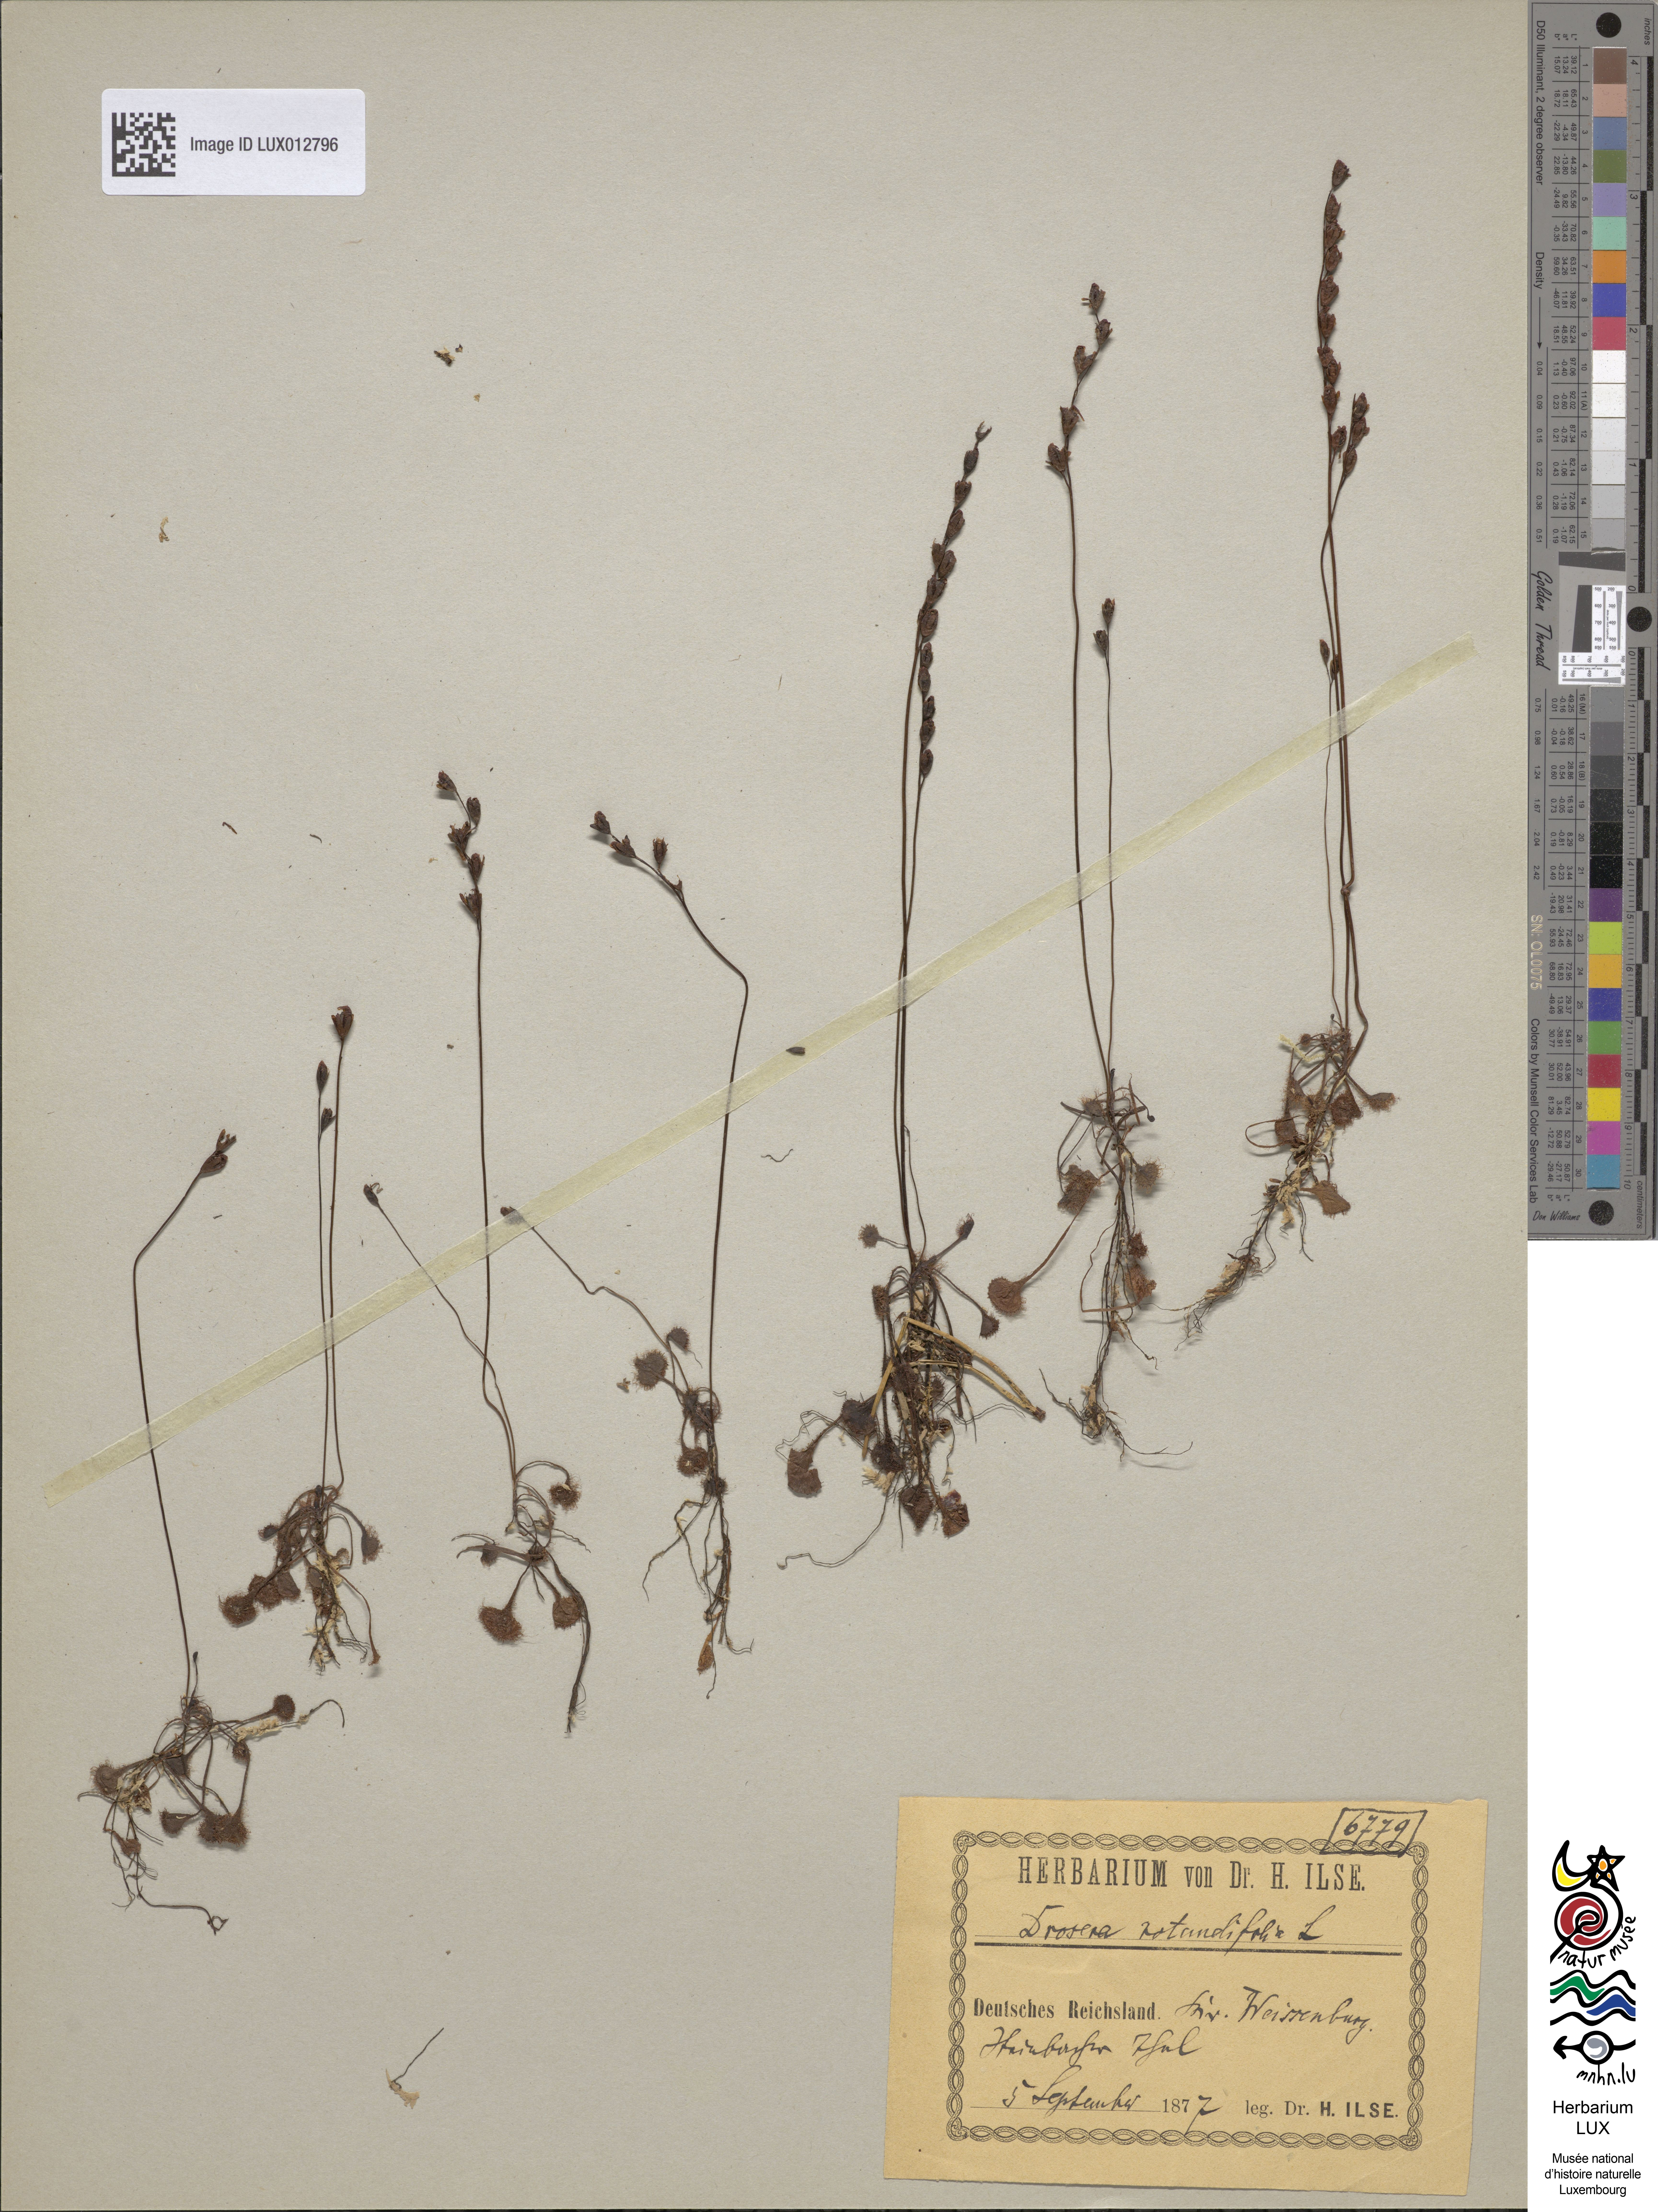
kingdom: Plantae
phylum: Tracheophyta
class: Magnoliopsida
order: Caryophyllales
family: Droseraceae
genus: Drosera
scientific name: Drosera rotundifolia
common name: Round-leaved sundew
